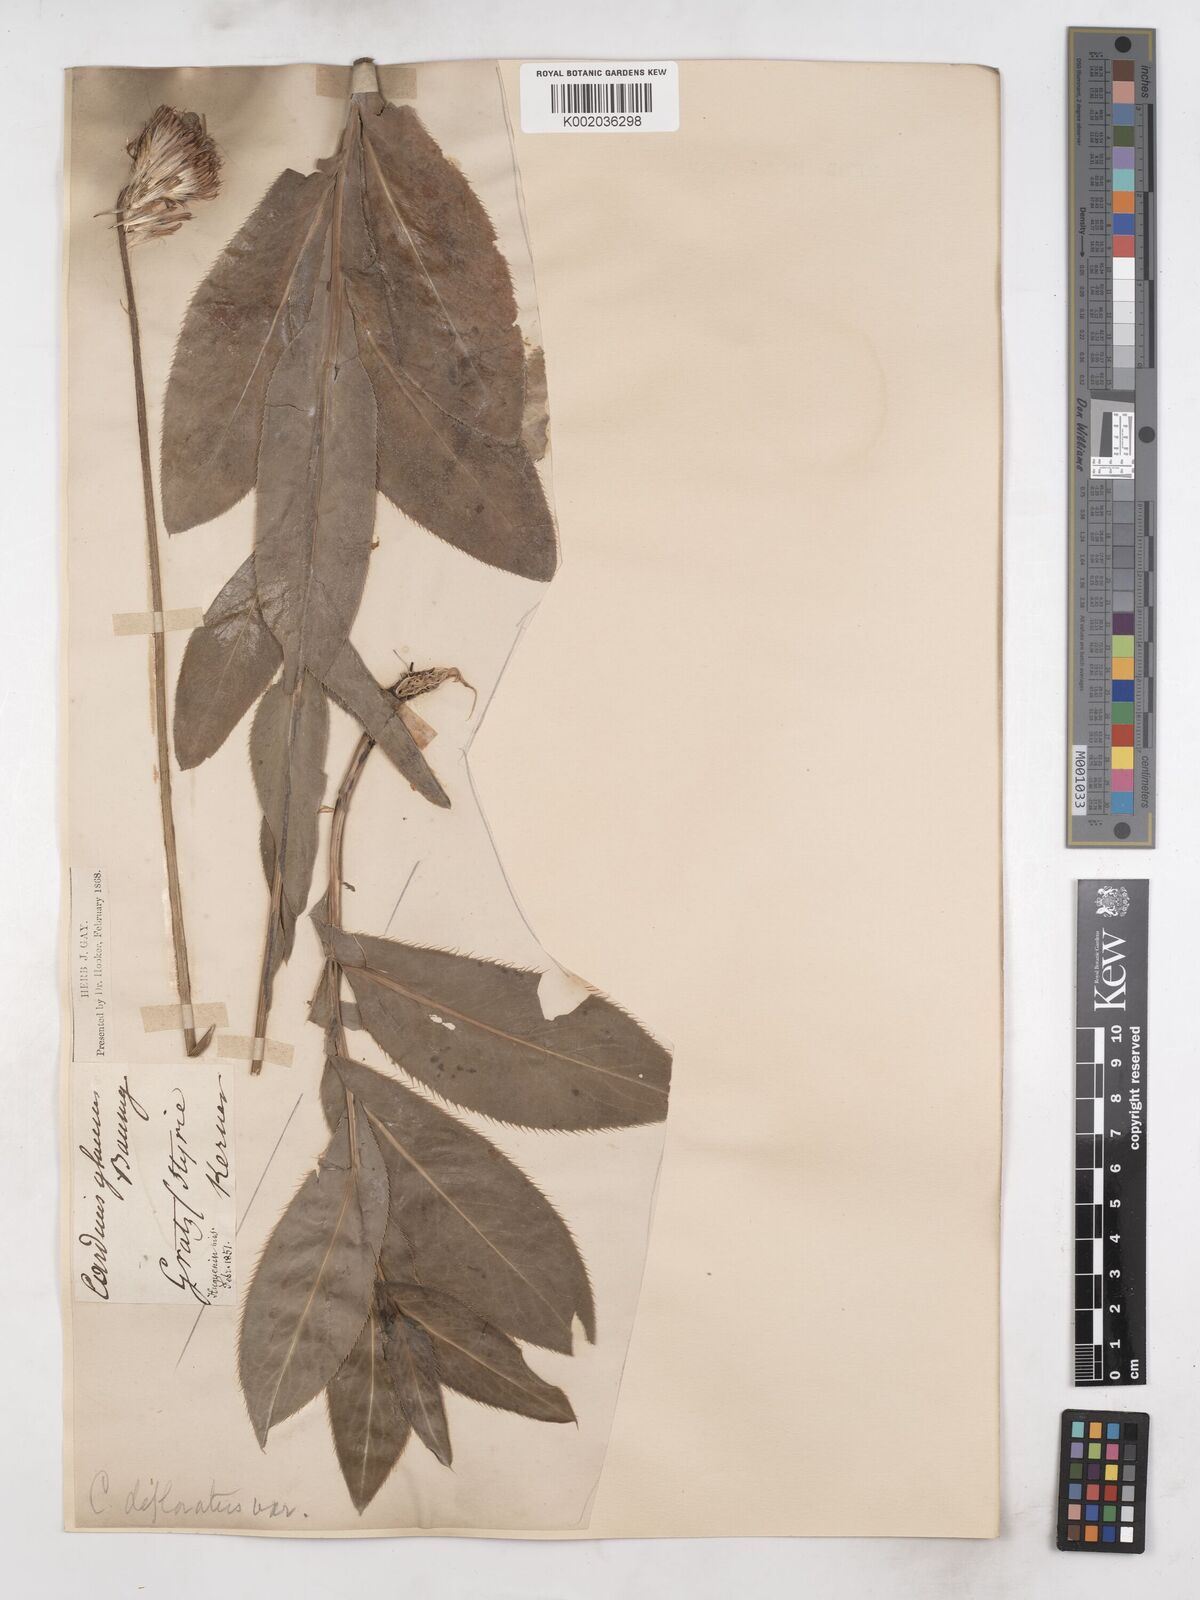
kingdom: Plantae
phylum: Tracheophyta
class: Magnoliopsida
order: Asterales
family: Asteraceae
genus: Carduus
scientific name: Carduus defloratus
